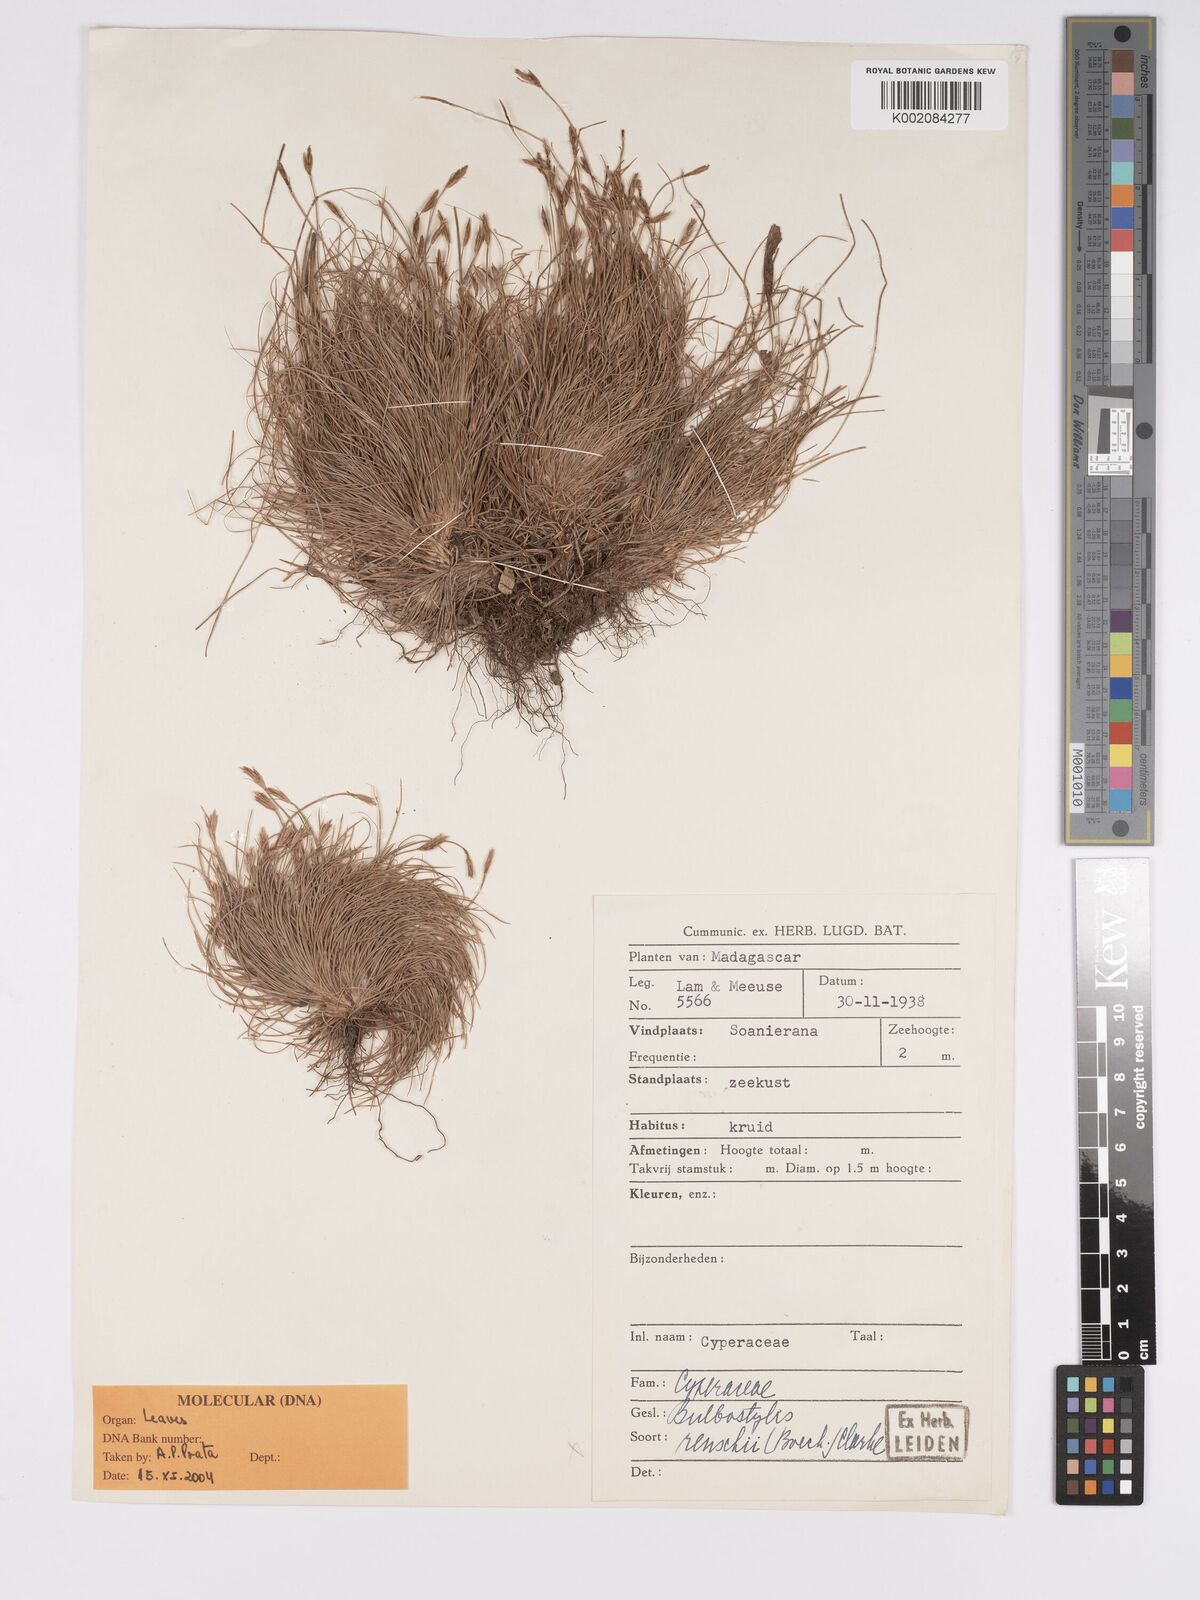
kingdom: Plantae
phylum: Tracheophyta
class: Liliopsida
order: Poales
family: Cyperaceae
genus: Bulbostylis
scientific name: Bulbostylis festucoides
